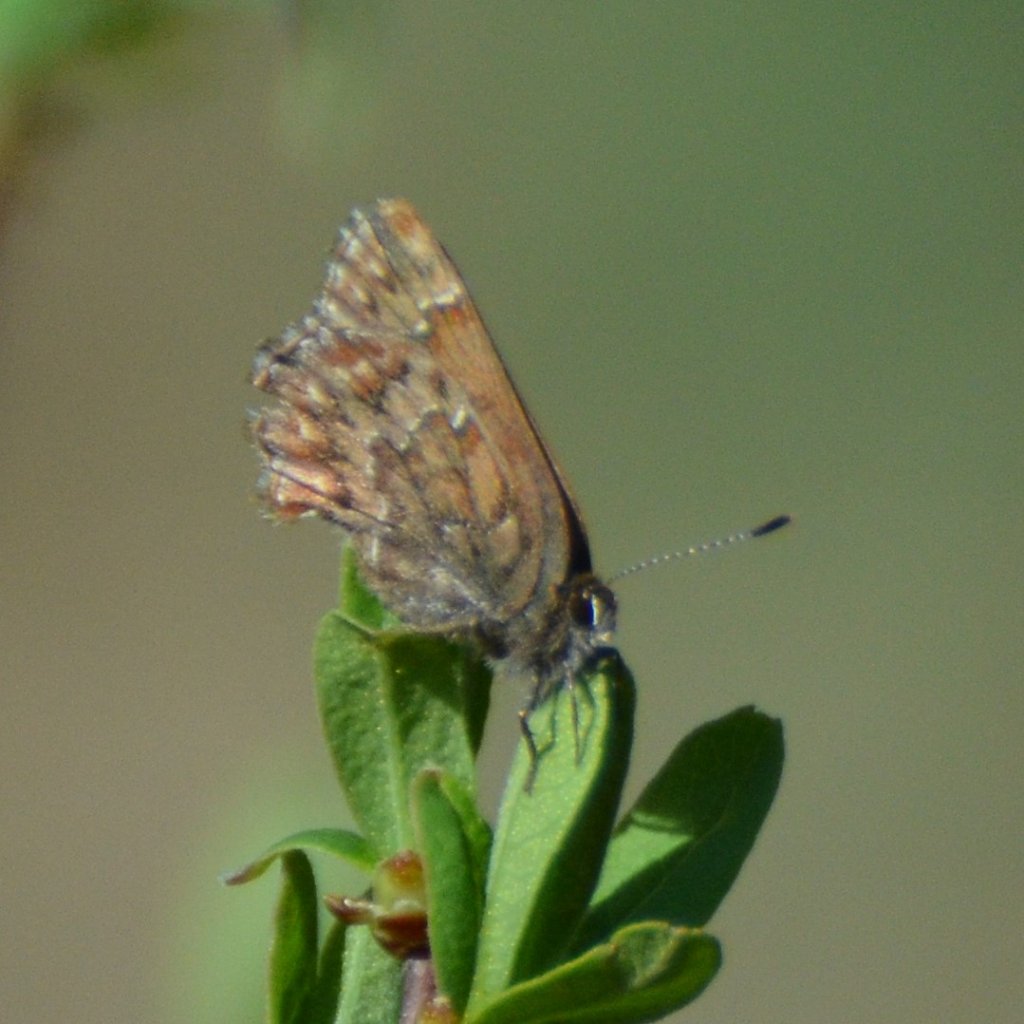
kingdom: Animalia
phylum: Arthropoda
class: Insecta
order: Lepidoptera
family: Lycaenidae
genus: Incisalia
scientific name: Incisalia eryphon
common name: Western Pine Elfin
